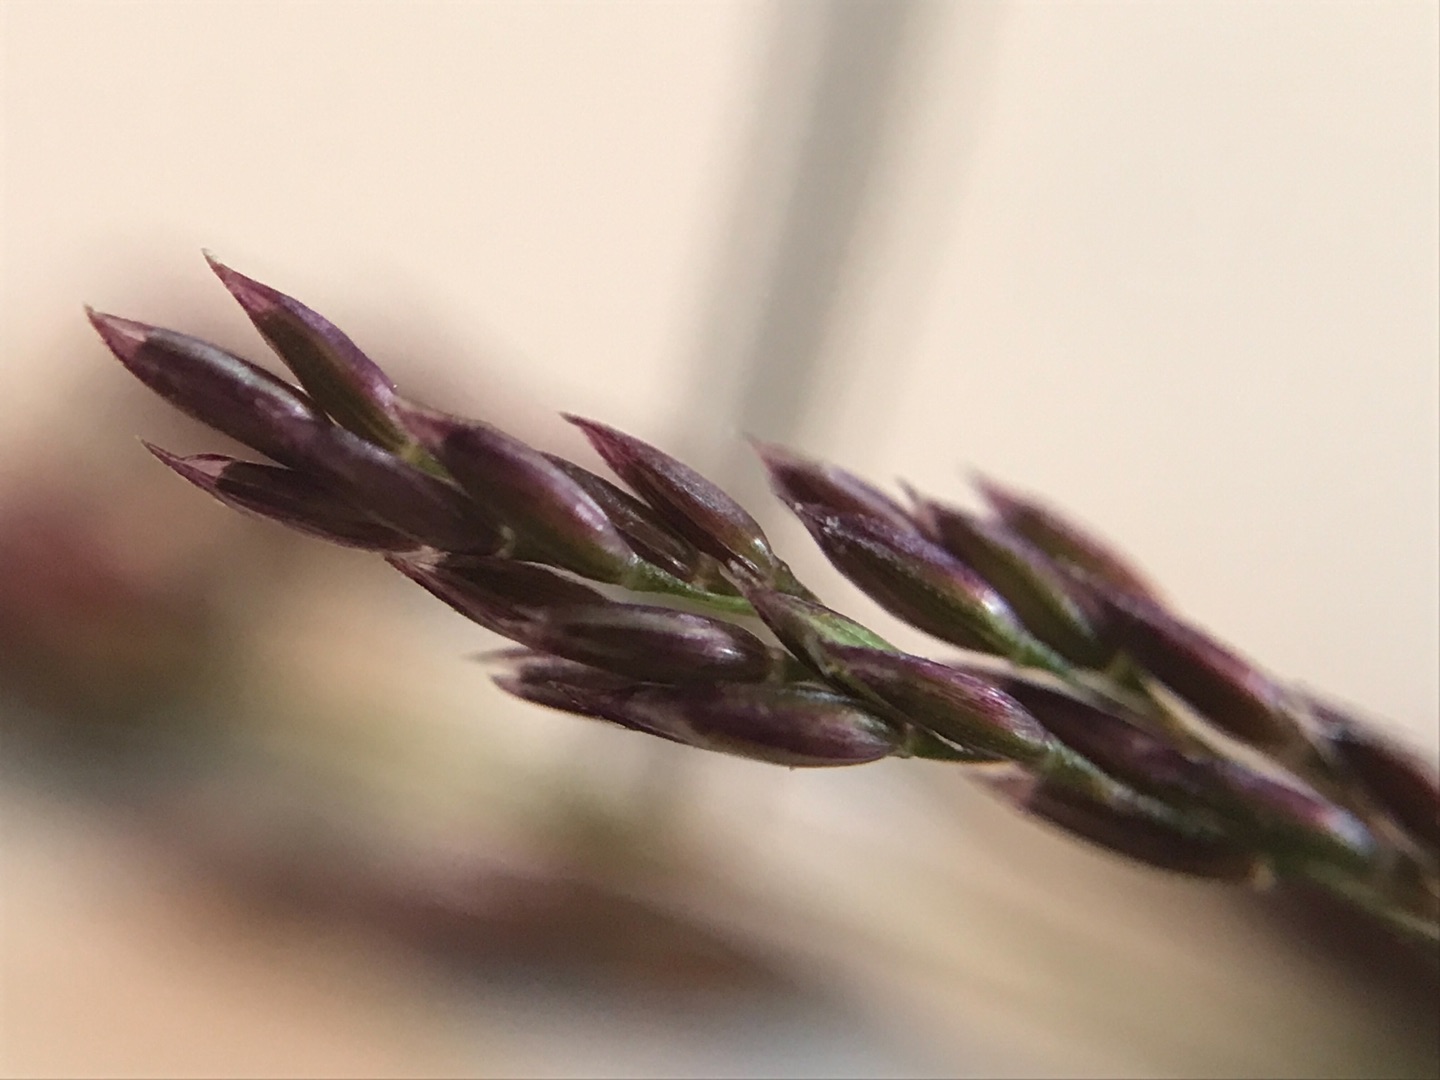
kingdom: Plantae
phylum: Tracheophyta
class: Liliopsida
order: Poales
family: Poaceae
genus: Agrostis
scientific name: Agrostis capillaris
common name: Almindelig hvene
